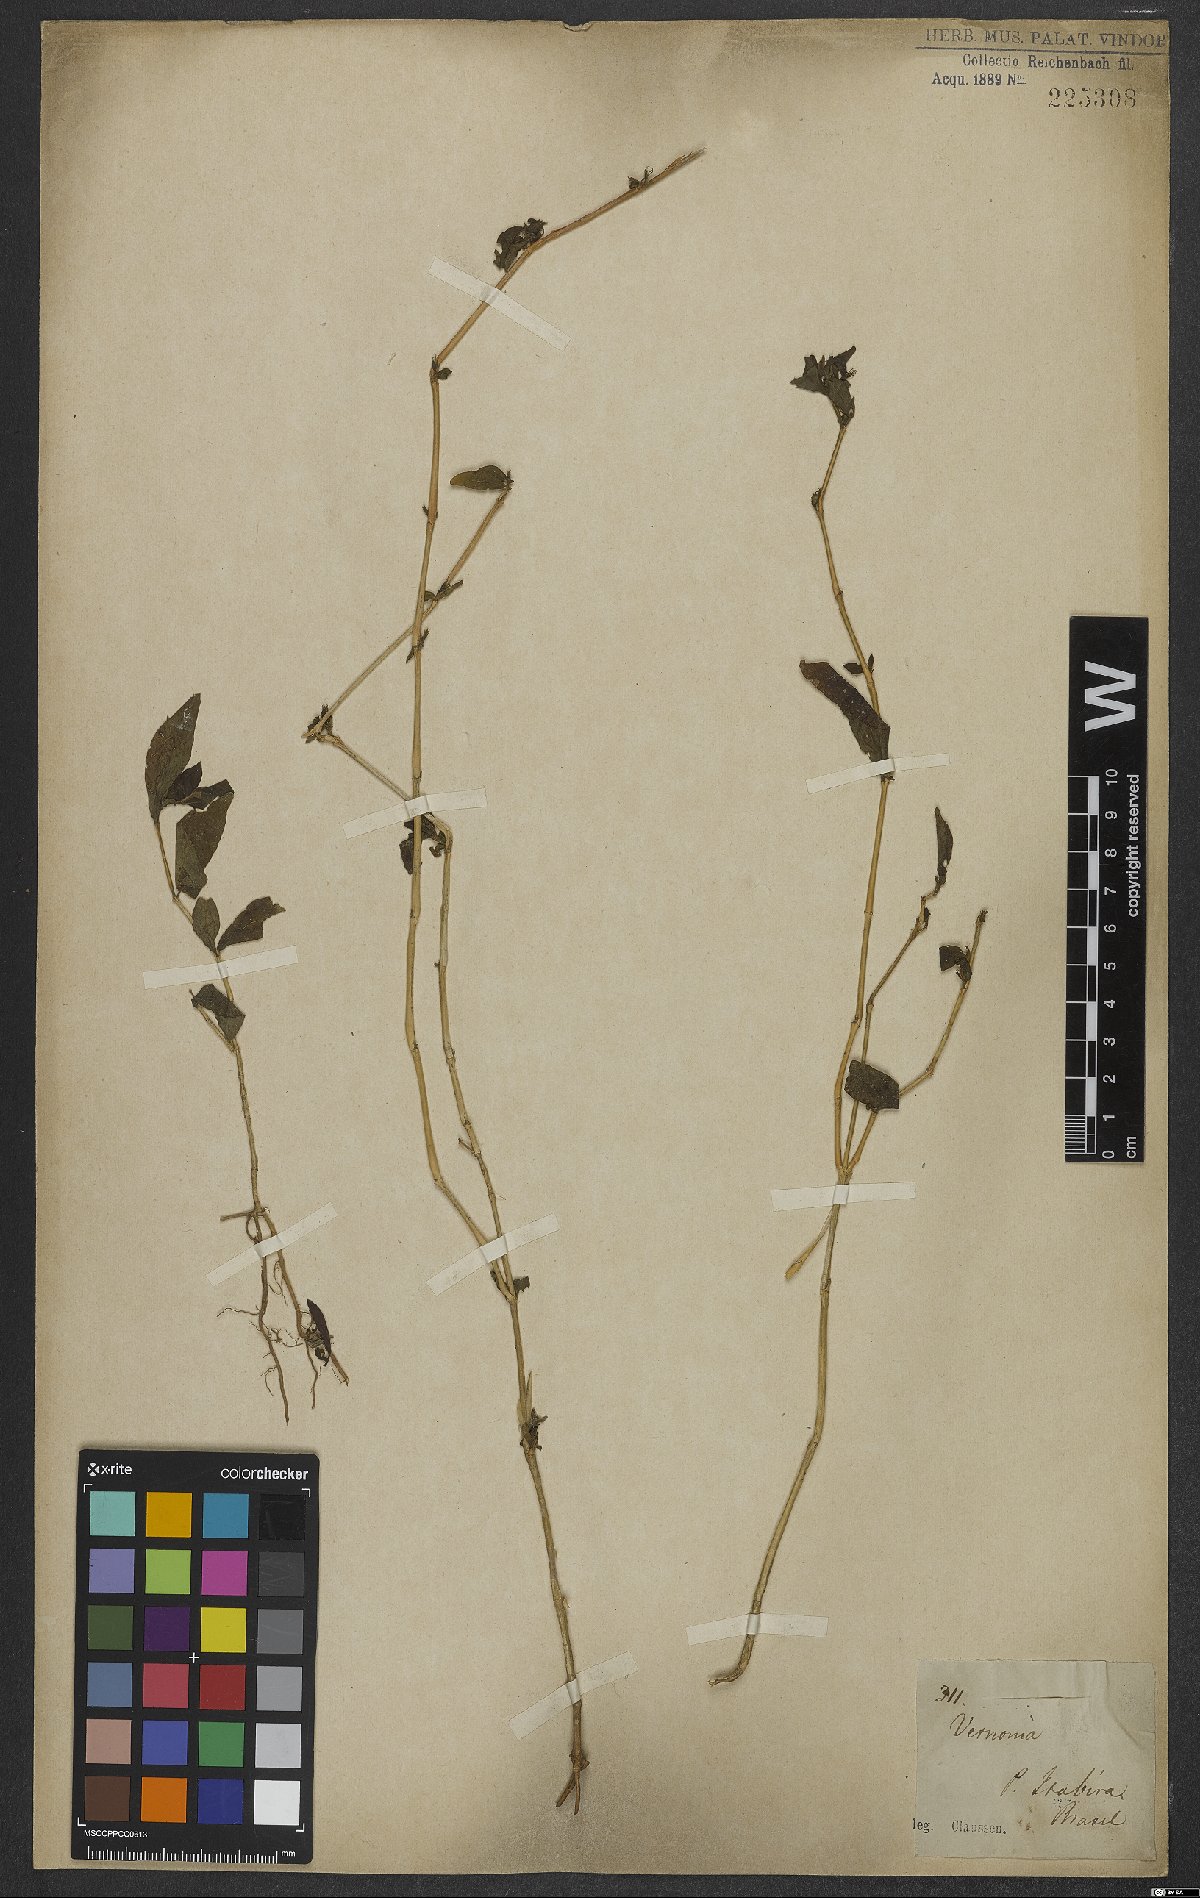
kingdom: Plantae
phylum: Tracheophyta
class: Magnoliopsida
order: Asterales
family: Asteraceae
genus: Vernonia
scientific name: Vernonia
